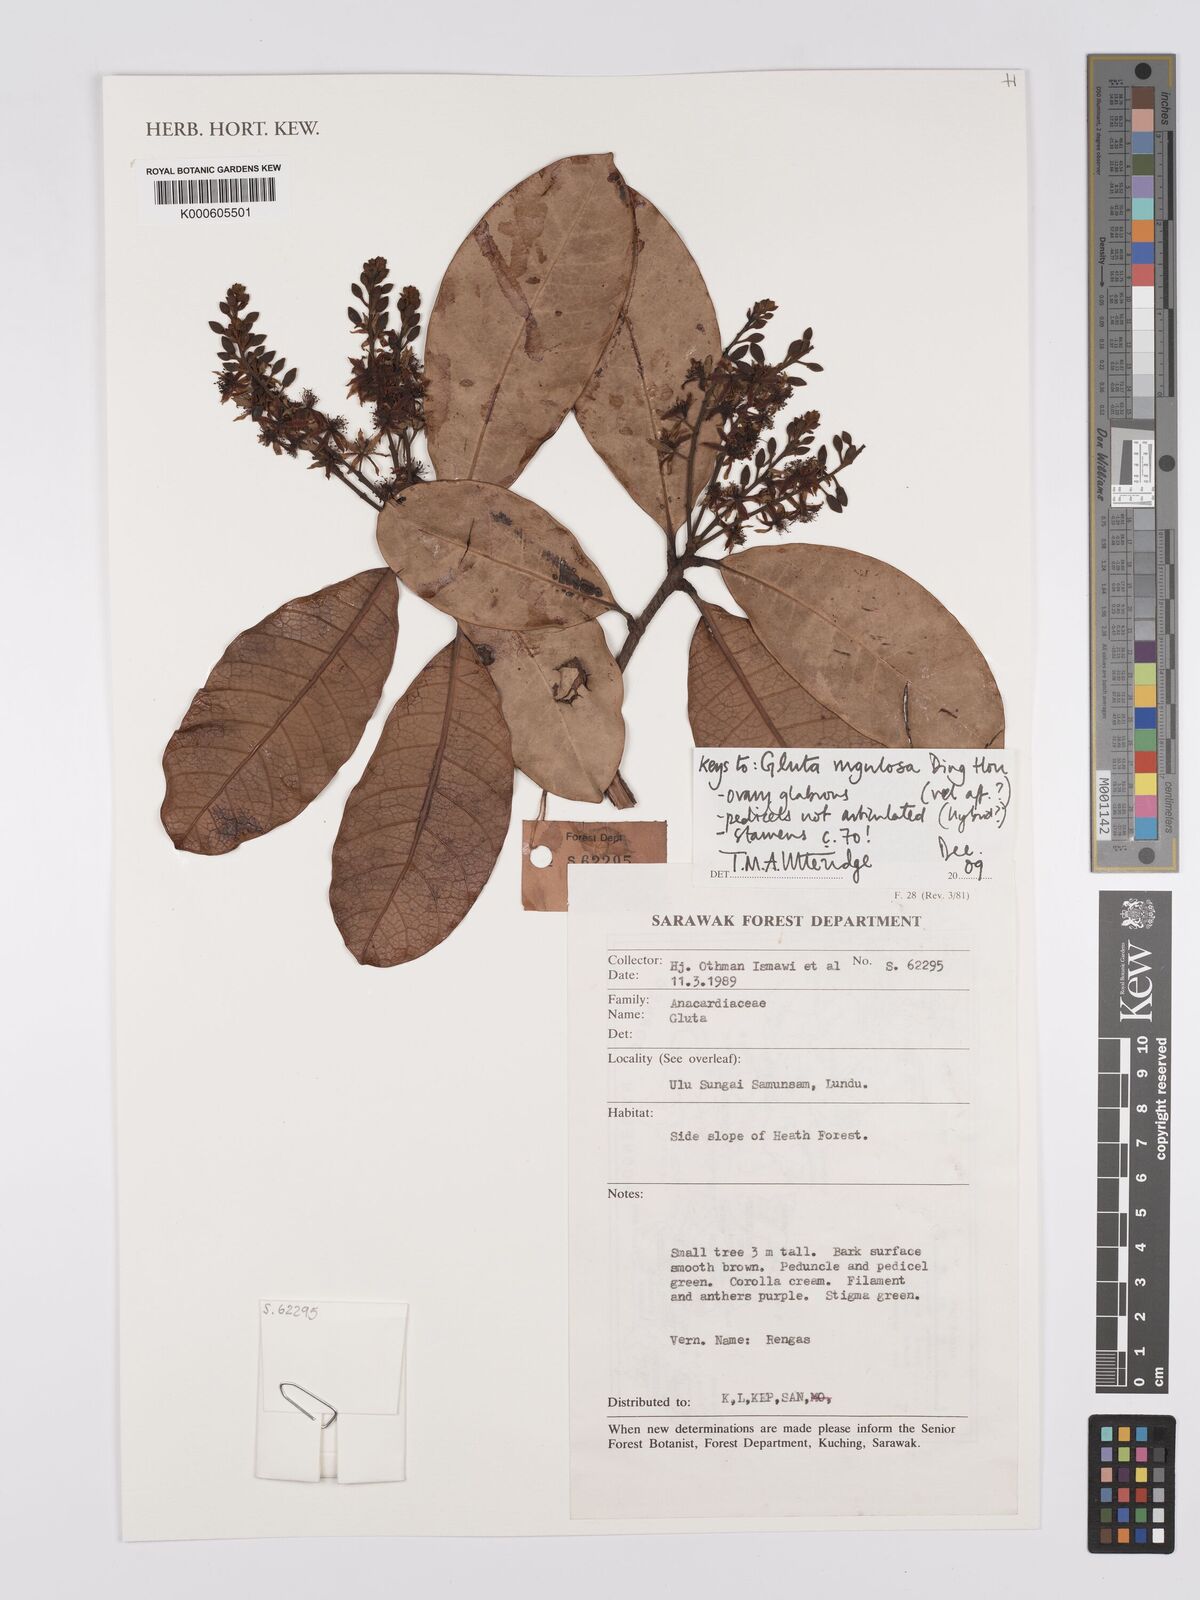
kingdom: Plantae
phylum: Tracheophyta
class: Magnoliopsida
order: Sapindales
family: Anacardiaceae
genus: Gluta
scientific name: Gluta
